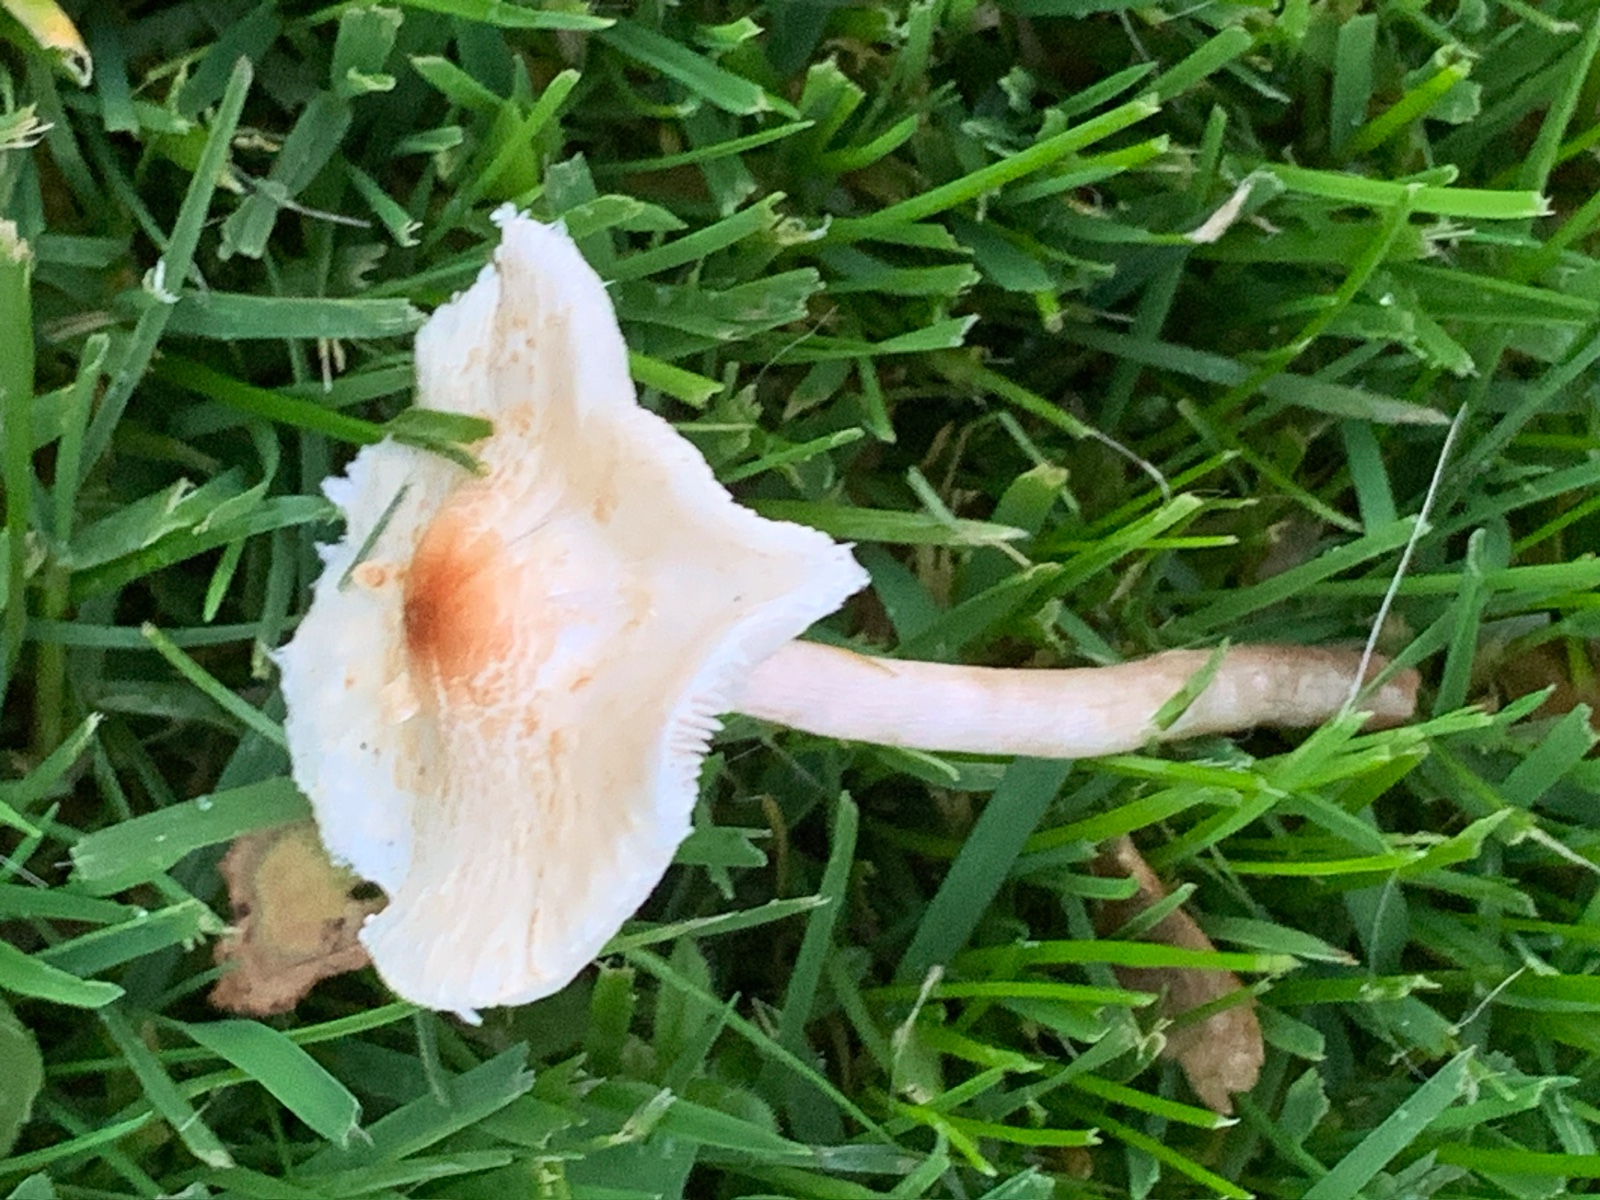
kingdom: Fungi
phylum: Basidiomycota
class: Agaricomycetes
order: Agaricales
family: Agaricaceae
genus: Lepiota
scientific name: Lepiota cristata
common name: stinkende parasolhat
